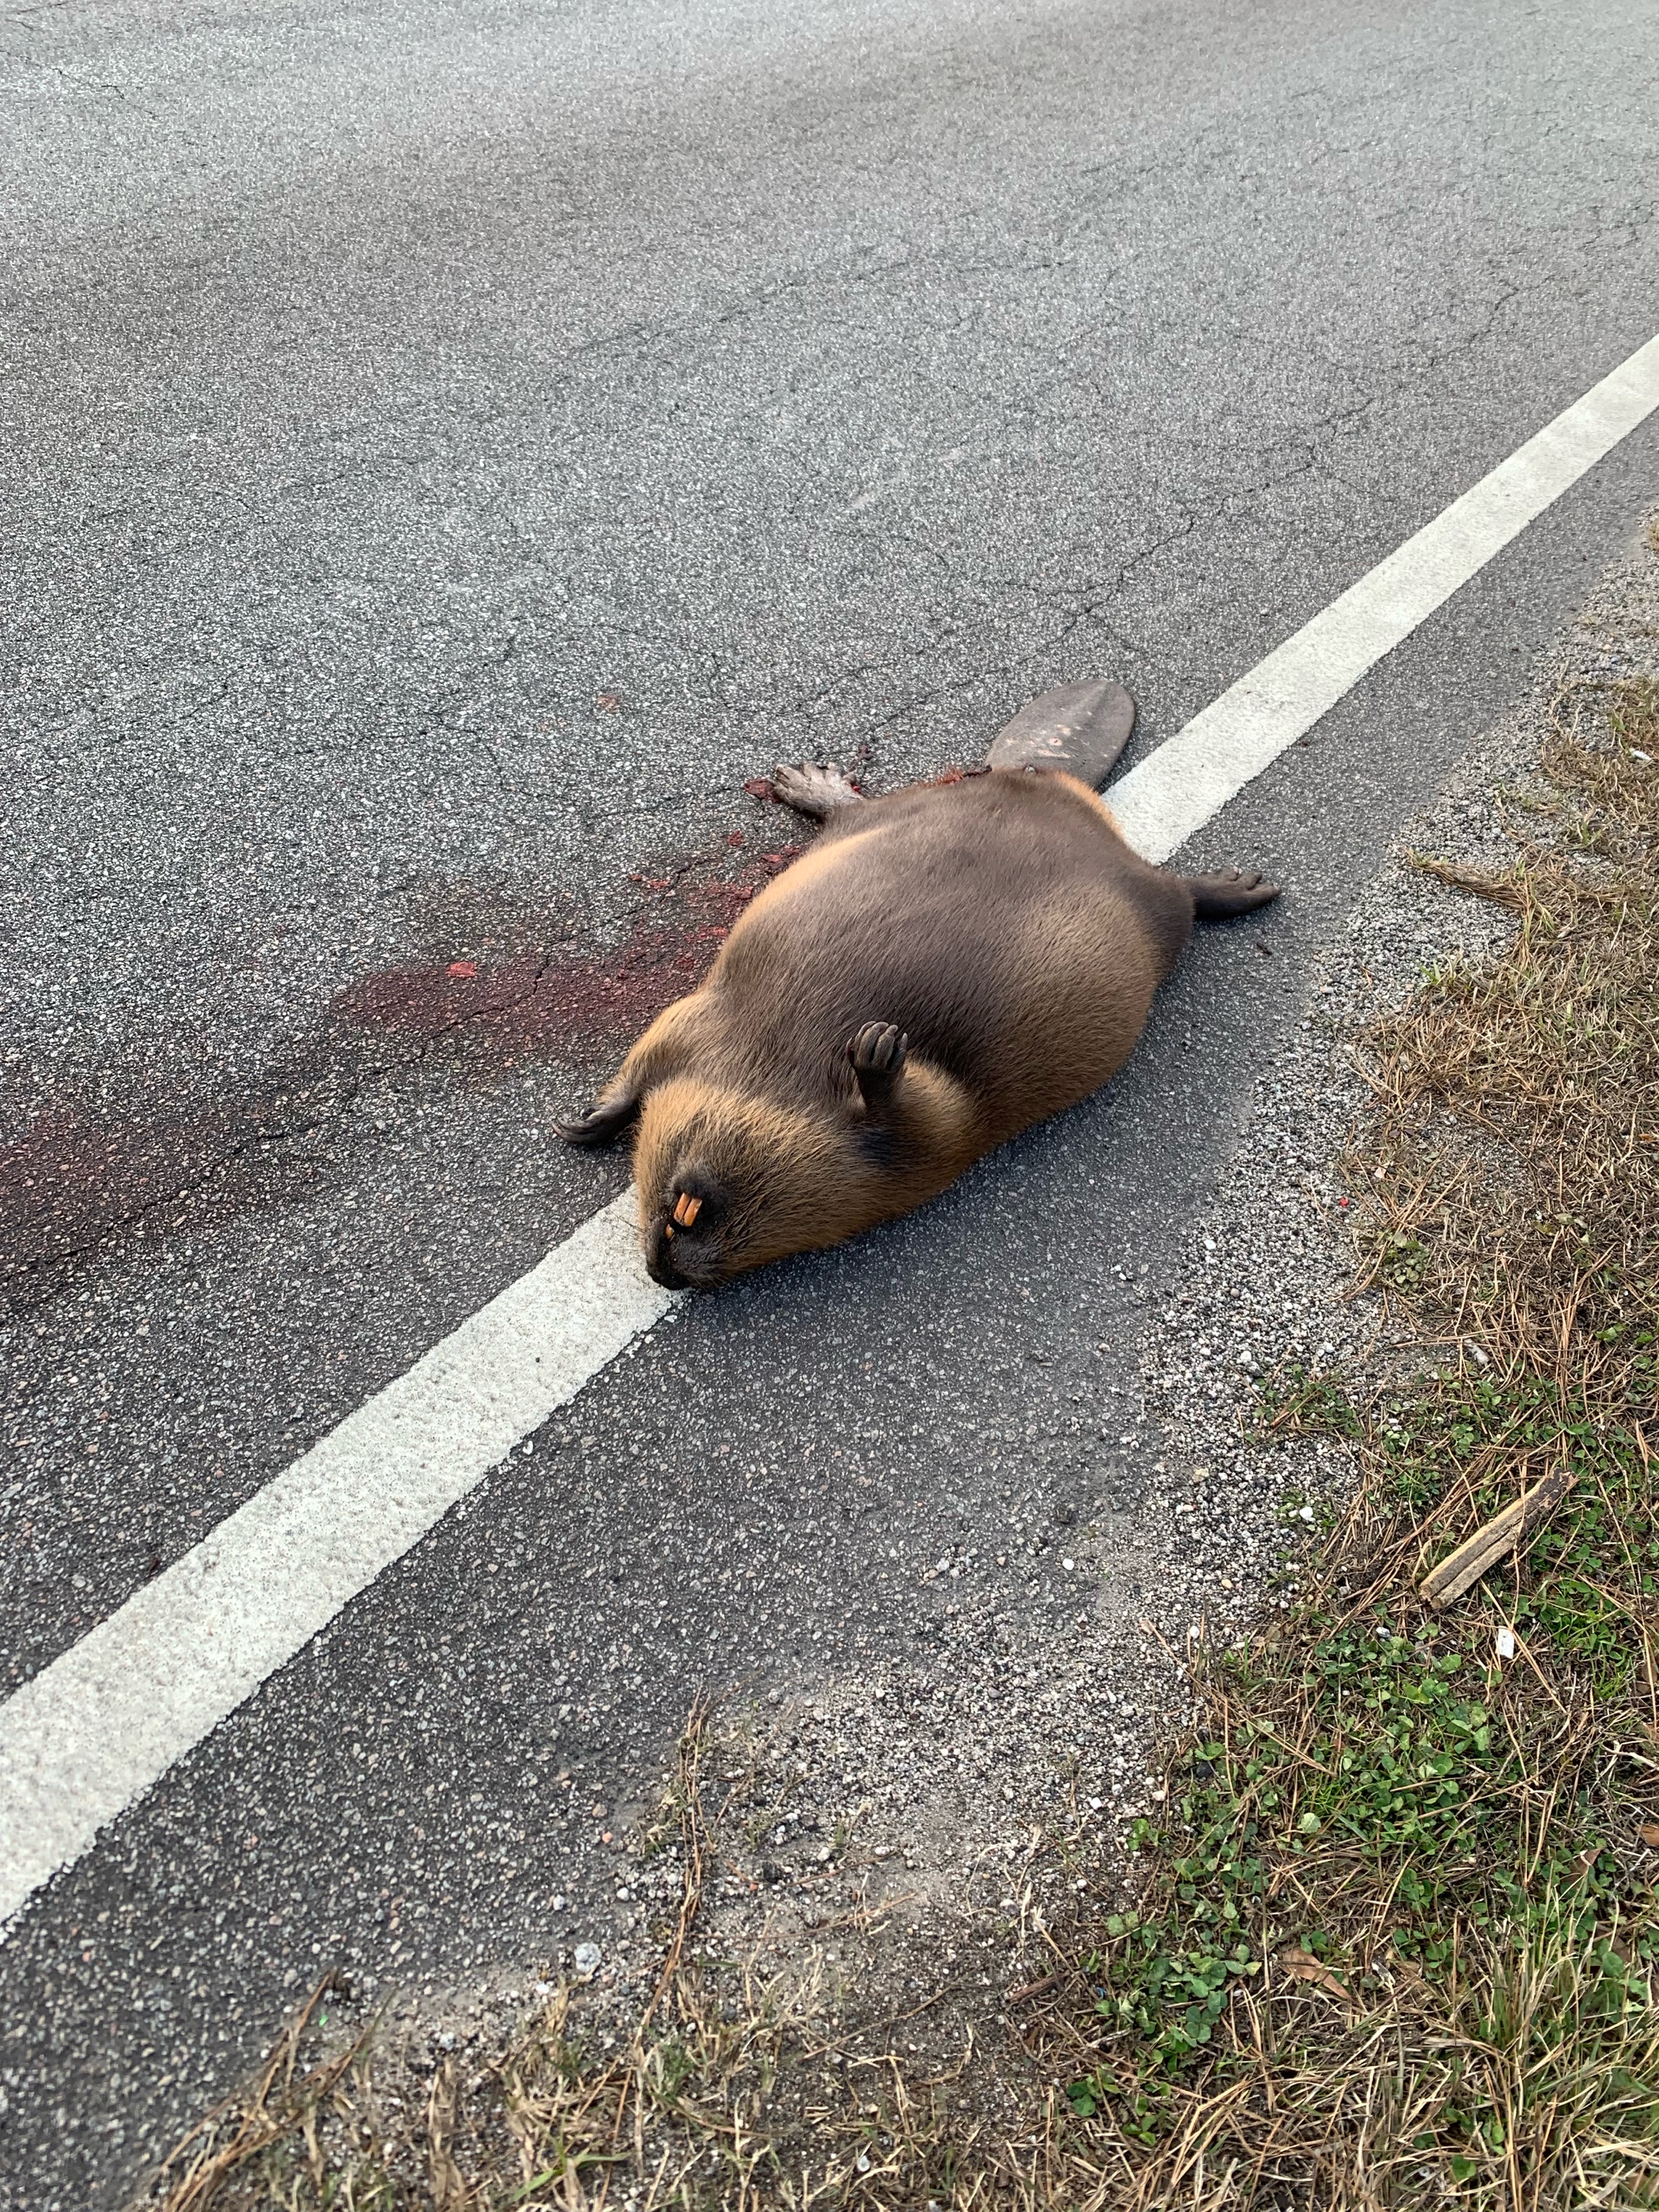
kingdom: Animalia
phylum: Chordata
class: Mammalia
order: Rodentia
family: Castoridae
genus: Castor
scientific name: Castor canadensis
